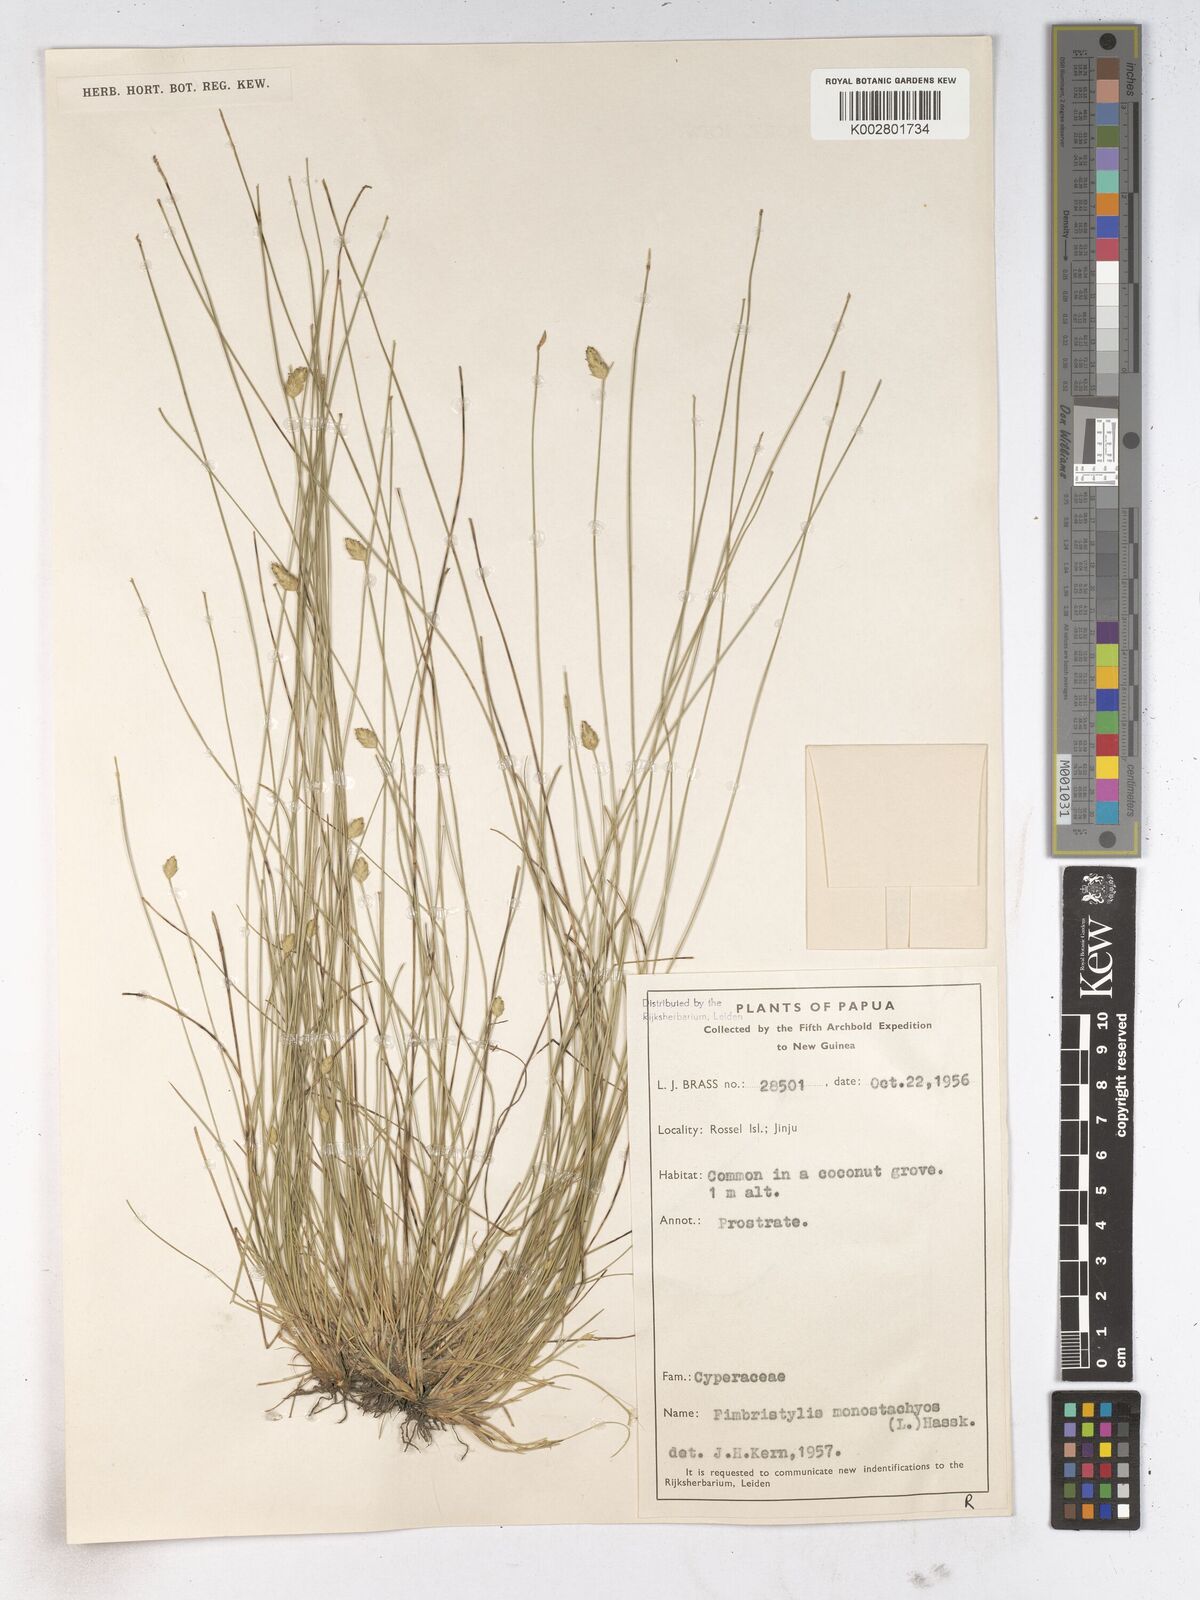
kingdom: Plantae
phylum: Tracheophyta
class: Liliopsida
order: Poales
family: Cyperaceae
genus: Abildgaardia
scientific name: Abildgaardia ovata
